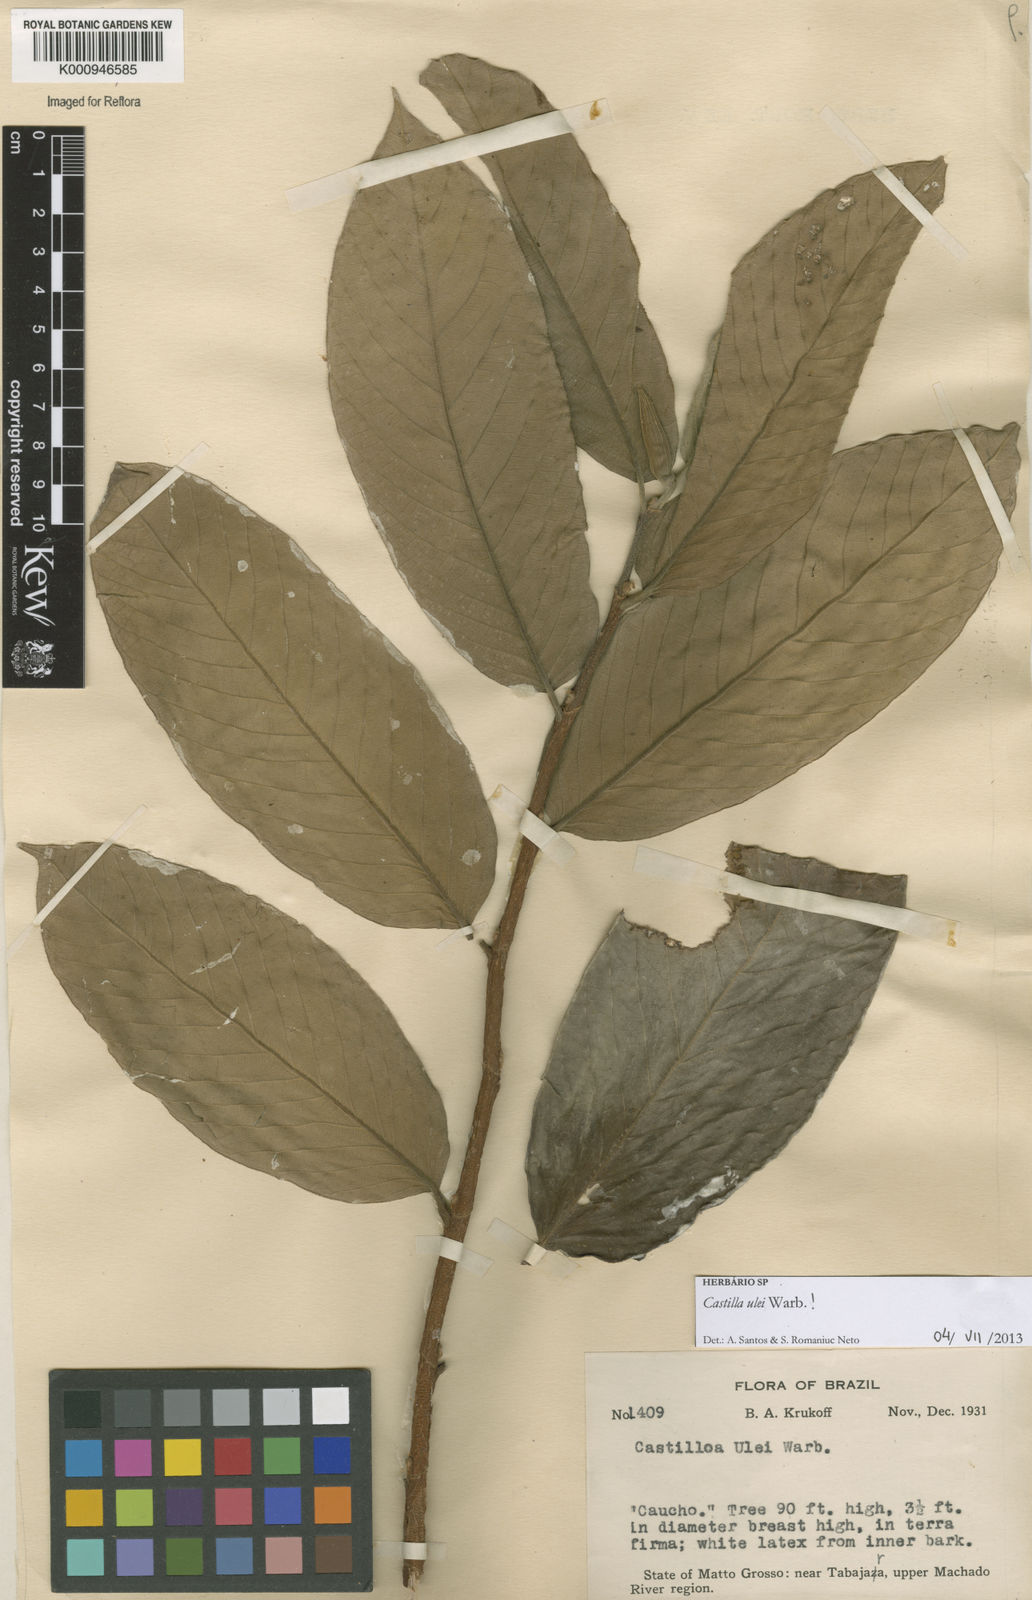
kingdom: Plantae
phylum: Tracheophyta
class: Magnoliopsida
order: Rosales
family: Moraceae
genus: Castilla
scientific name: Castilla ulei
